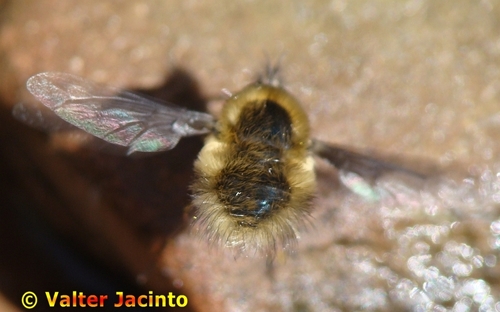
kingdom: Animalia
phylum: Arthropoda
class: Insecta
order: Diptera
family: Bombyliidae
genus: Bombylius
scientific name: Bombylius minor
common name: Heath bee-fly
